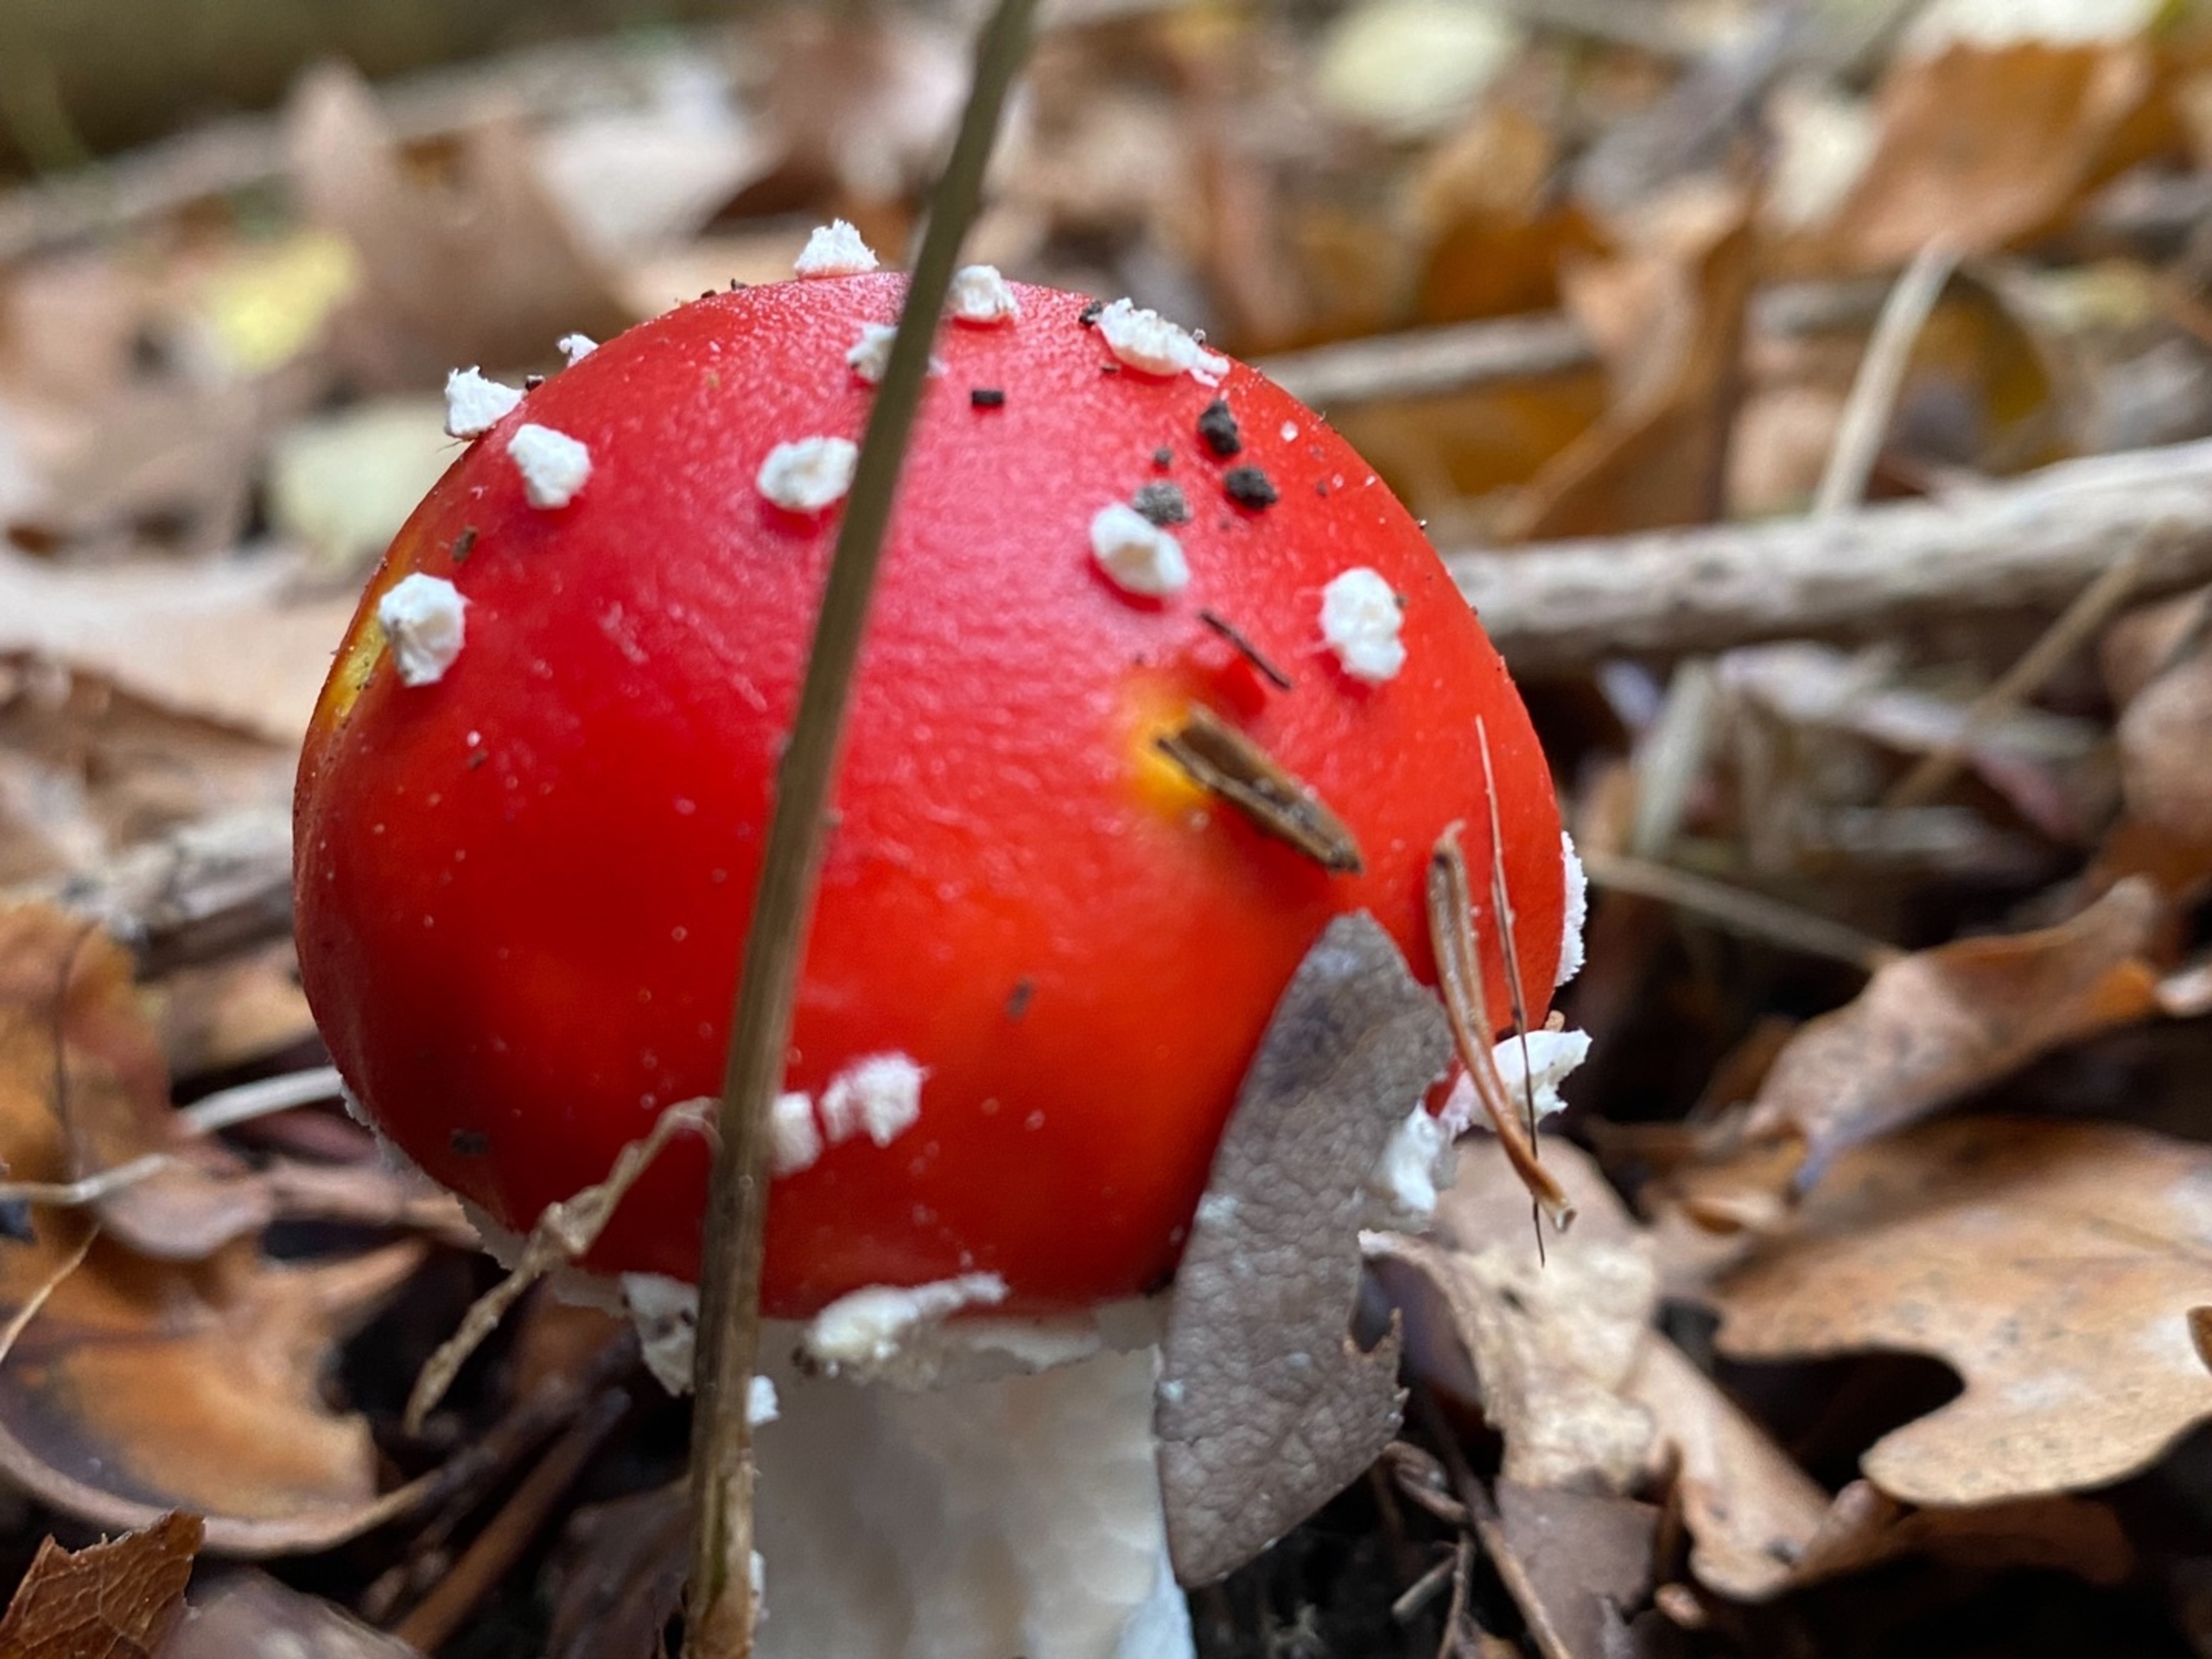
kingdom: Fungi
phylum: Basidiomycota
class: Agaricomycetes
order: Agaricales
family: Amanitaceae
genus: Amanita
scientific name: Amanita muscaria
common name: Rød fluesvamp
